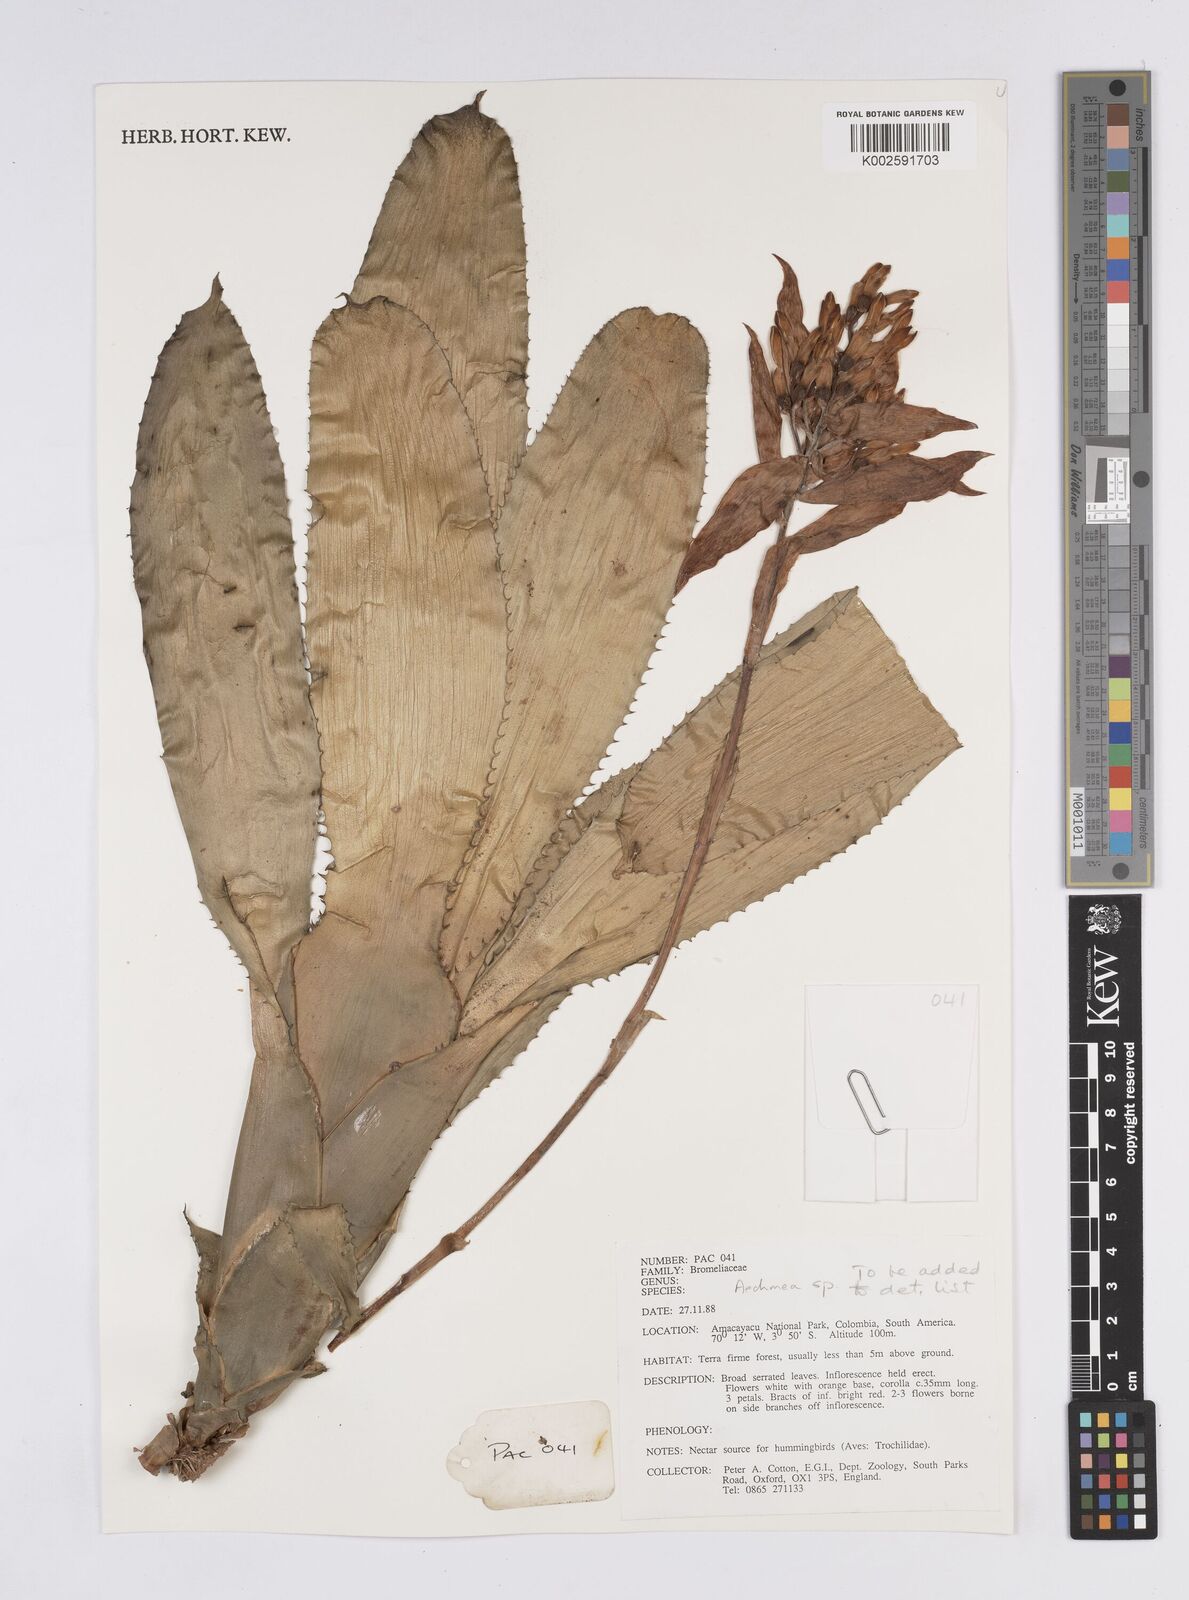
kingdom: Plantae
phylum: Tracheophyta
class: Liliopsida
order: Poales
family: Bromeliaceae
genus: Aechmea
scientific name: Aechmea
